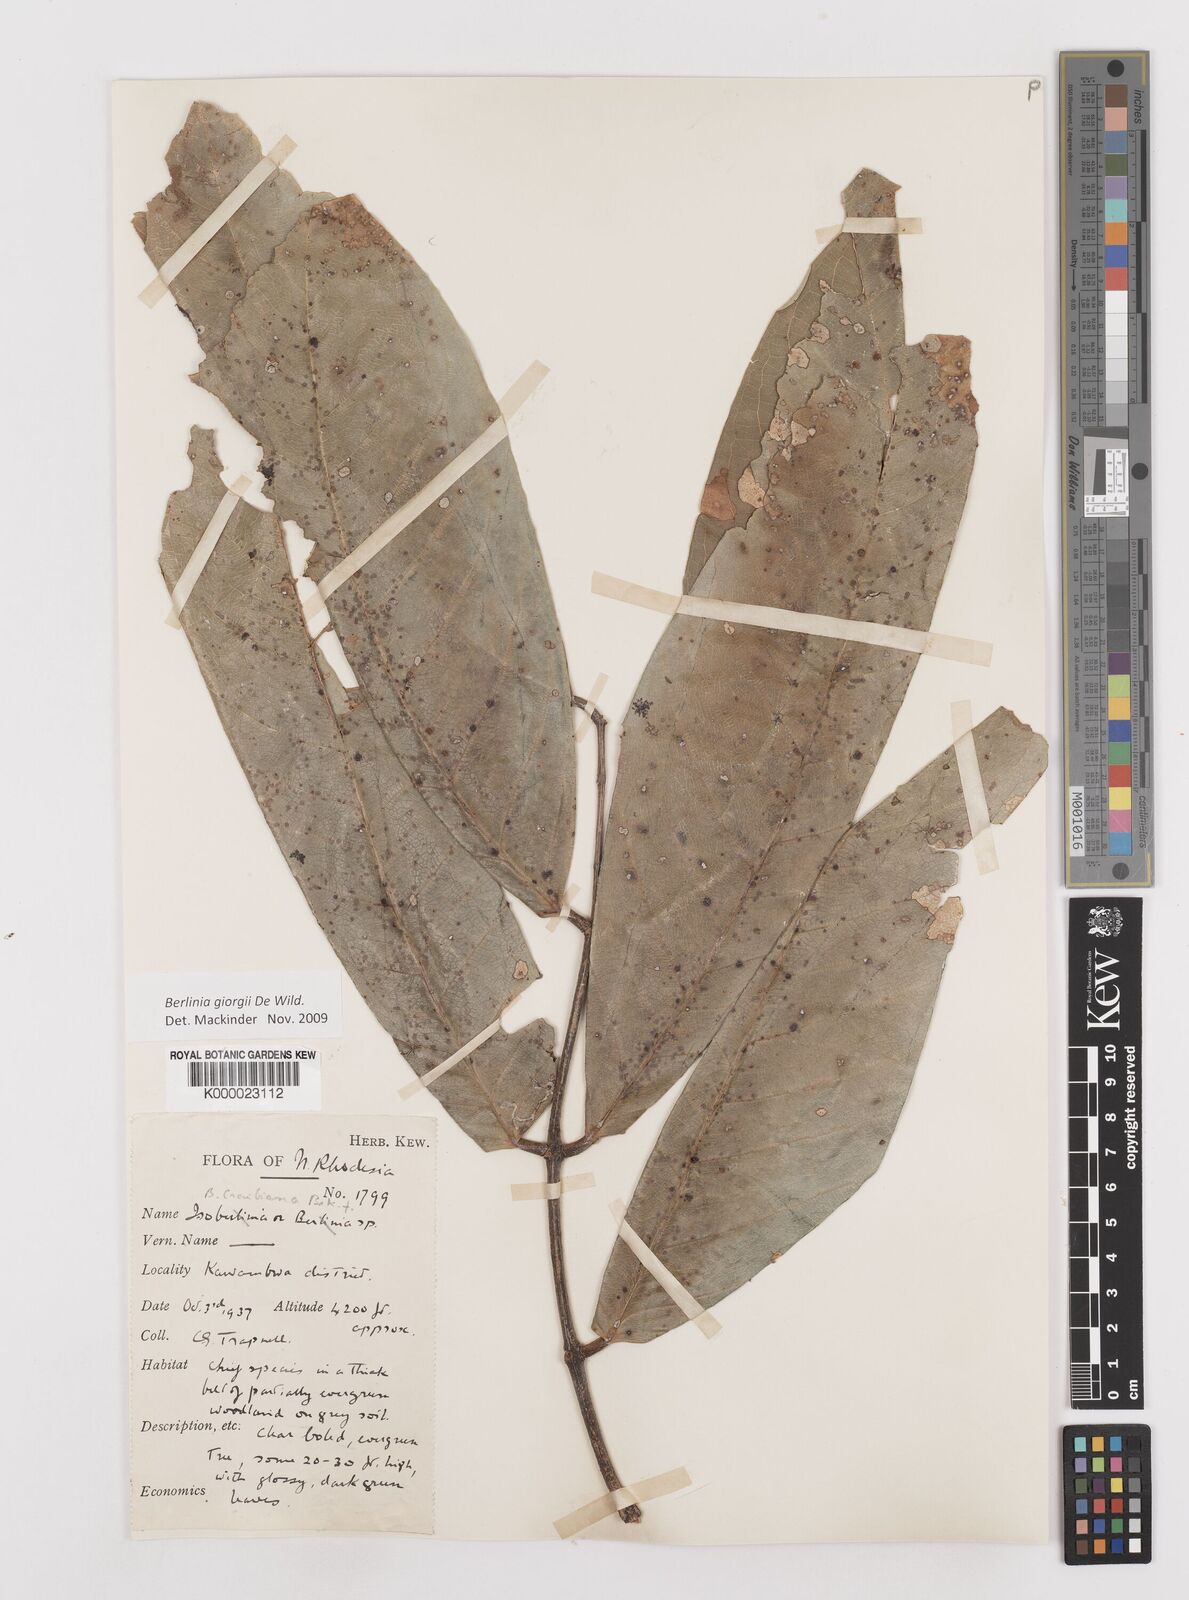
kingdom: Plantae
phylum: Tracheophyta
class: Magnoliopsida
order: Fabales
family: Fabaceae
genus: Berlinia
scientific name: Berlinia giorgii
